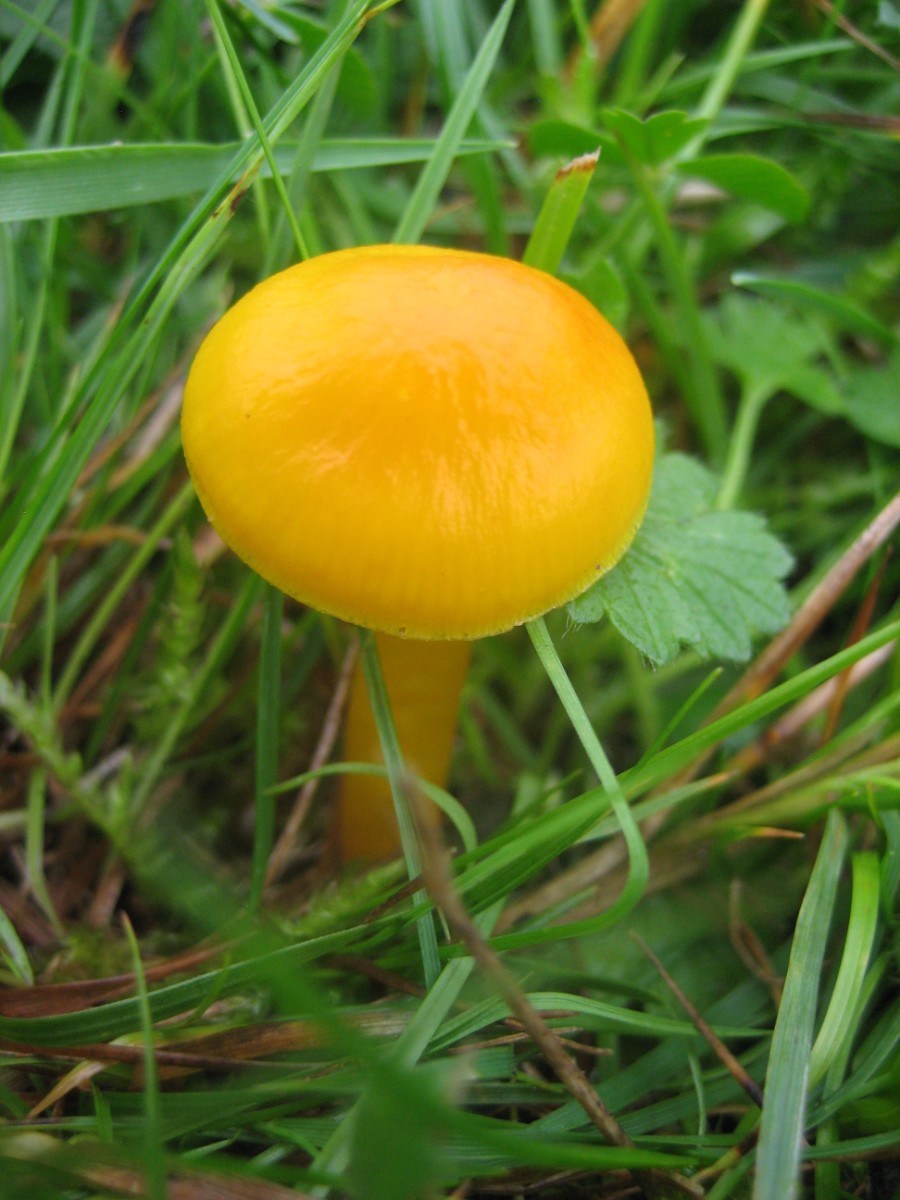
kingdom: Fungi
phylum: Basidiomycota
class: Agaricomycetes
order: Agaricales
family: Hygrophoraceae
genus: Hygrocybe
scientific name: Hygrocybe chlorophana
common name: gul vokshat
